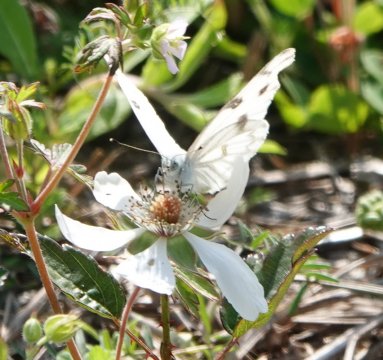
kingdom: Animalia
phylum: Arthropoda
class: Insecta
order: Lepidoptera
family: Pieridae
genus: Pontia
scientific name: Pontia protodice
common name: Checkered White
